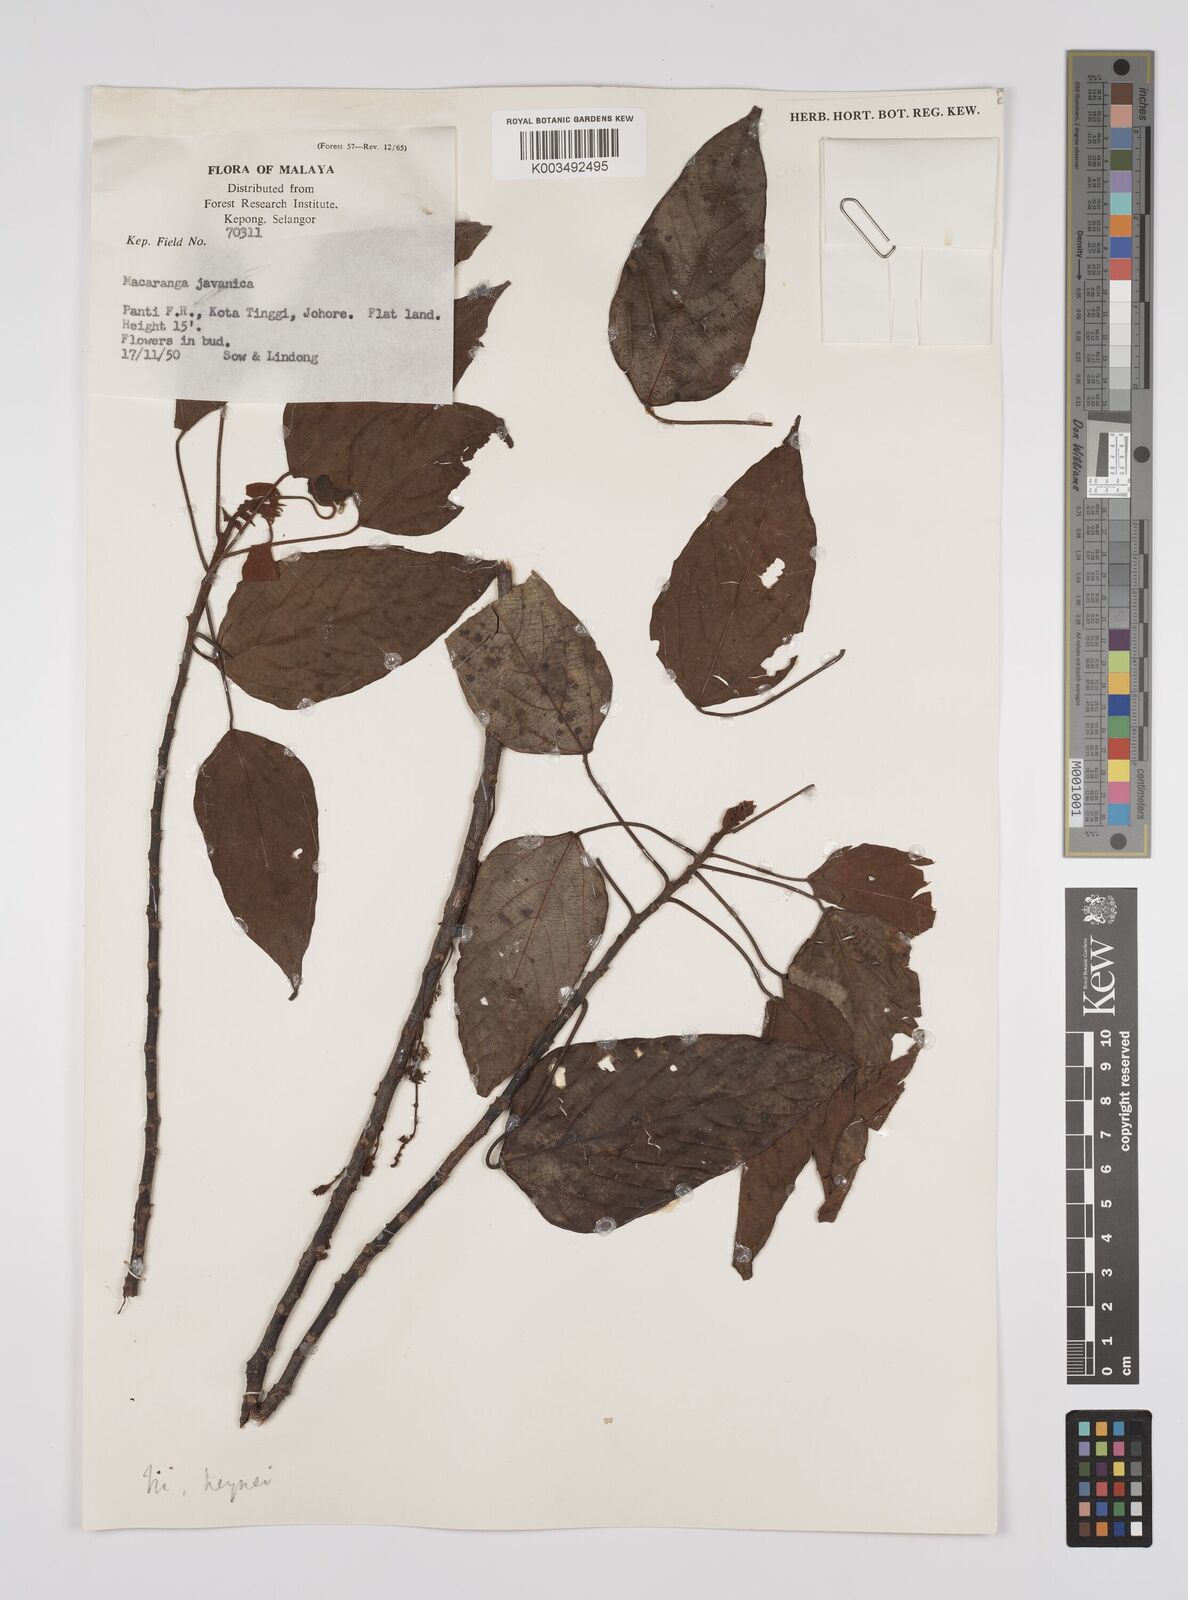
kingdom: Plantae
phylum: Tracheophyta
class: Magnoliopsida
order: Malpighiales
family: Euphorbiaceae
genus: Macaranga
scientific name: Macaranga heynei
